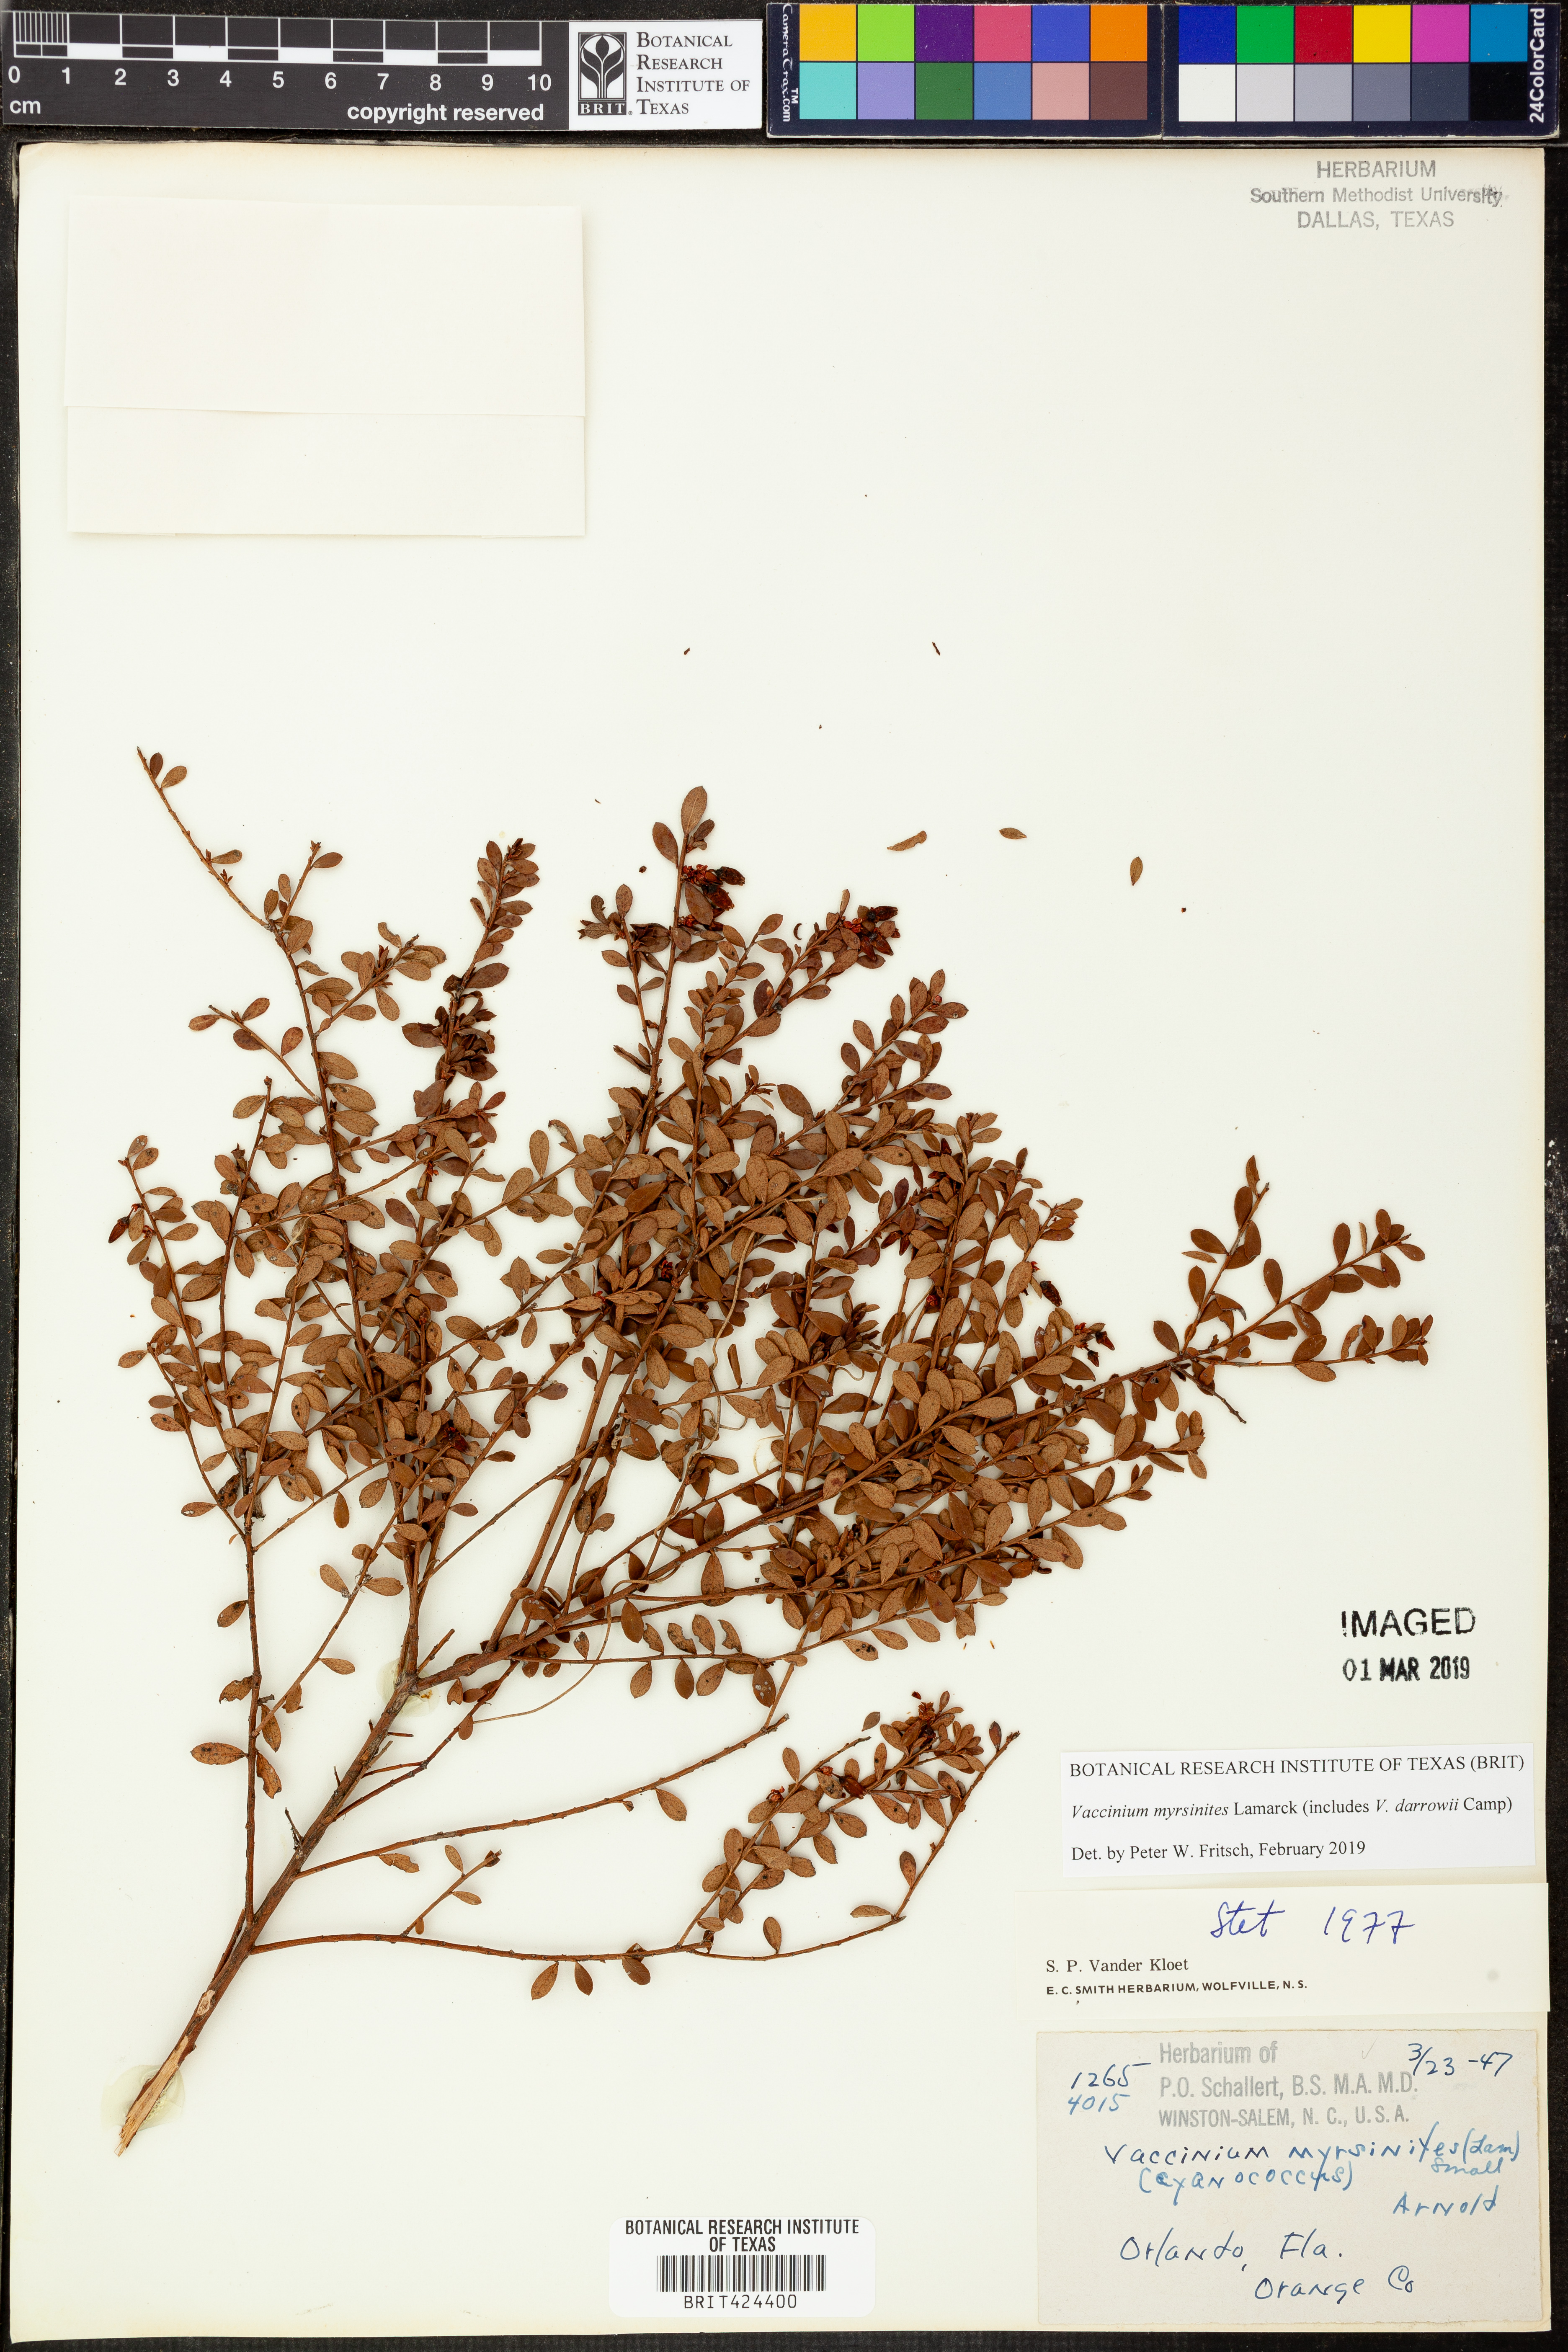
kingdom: Plantae
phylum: Tracheophyta
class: Magnoliopsida
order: Ericales
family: Ericaceae
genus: Vaccinium
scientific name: Vaccinium myrsinites
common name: Evergreen blueberry
